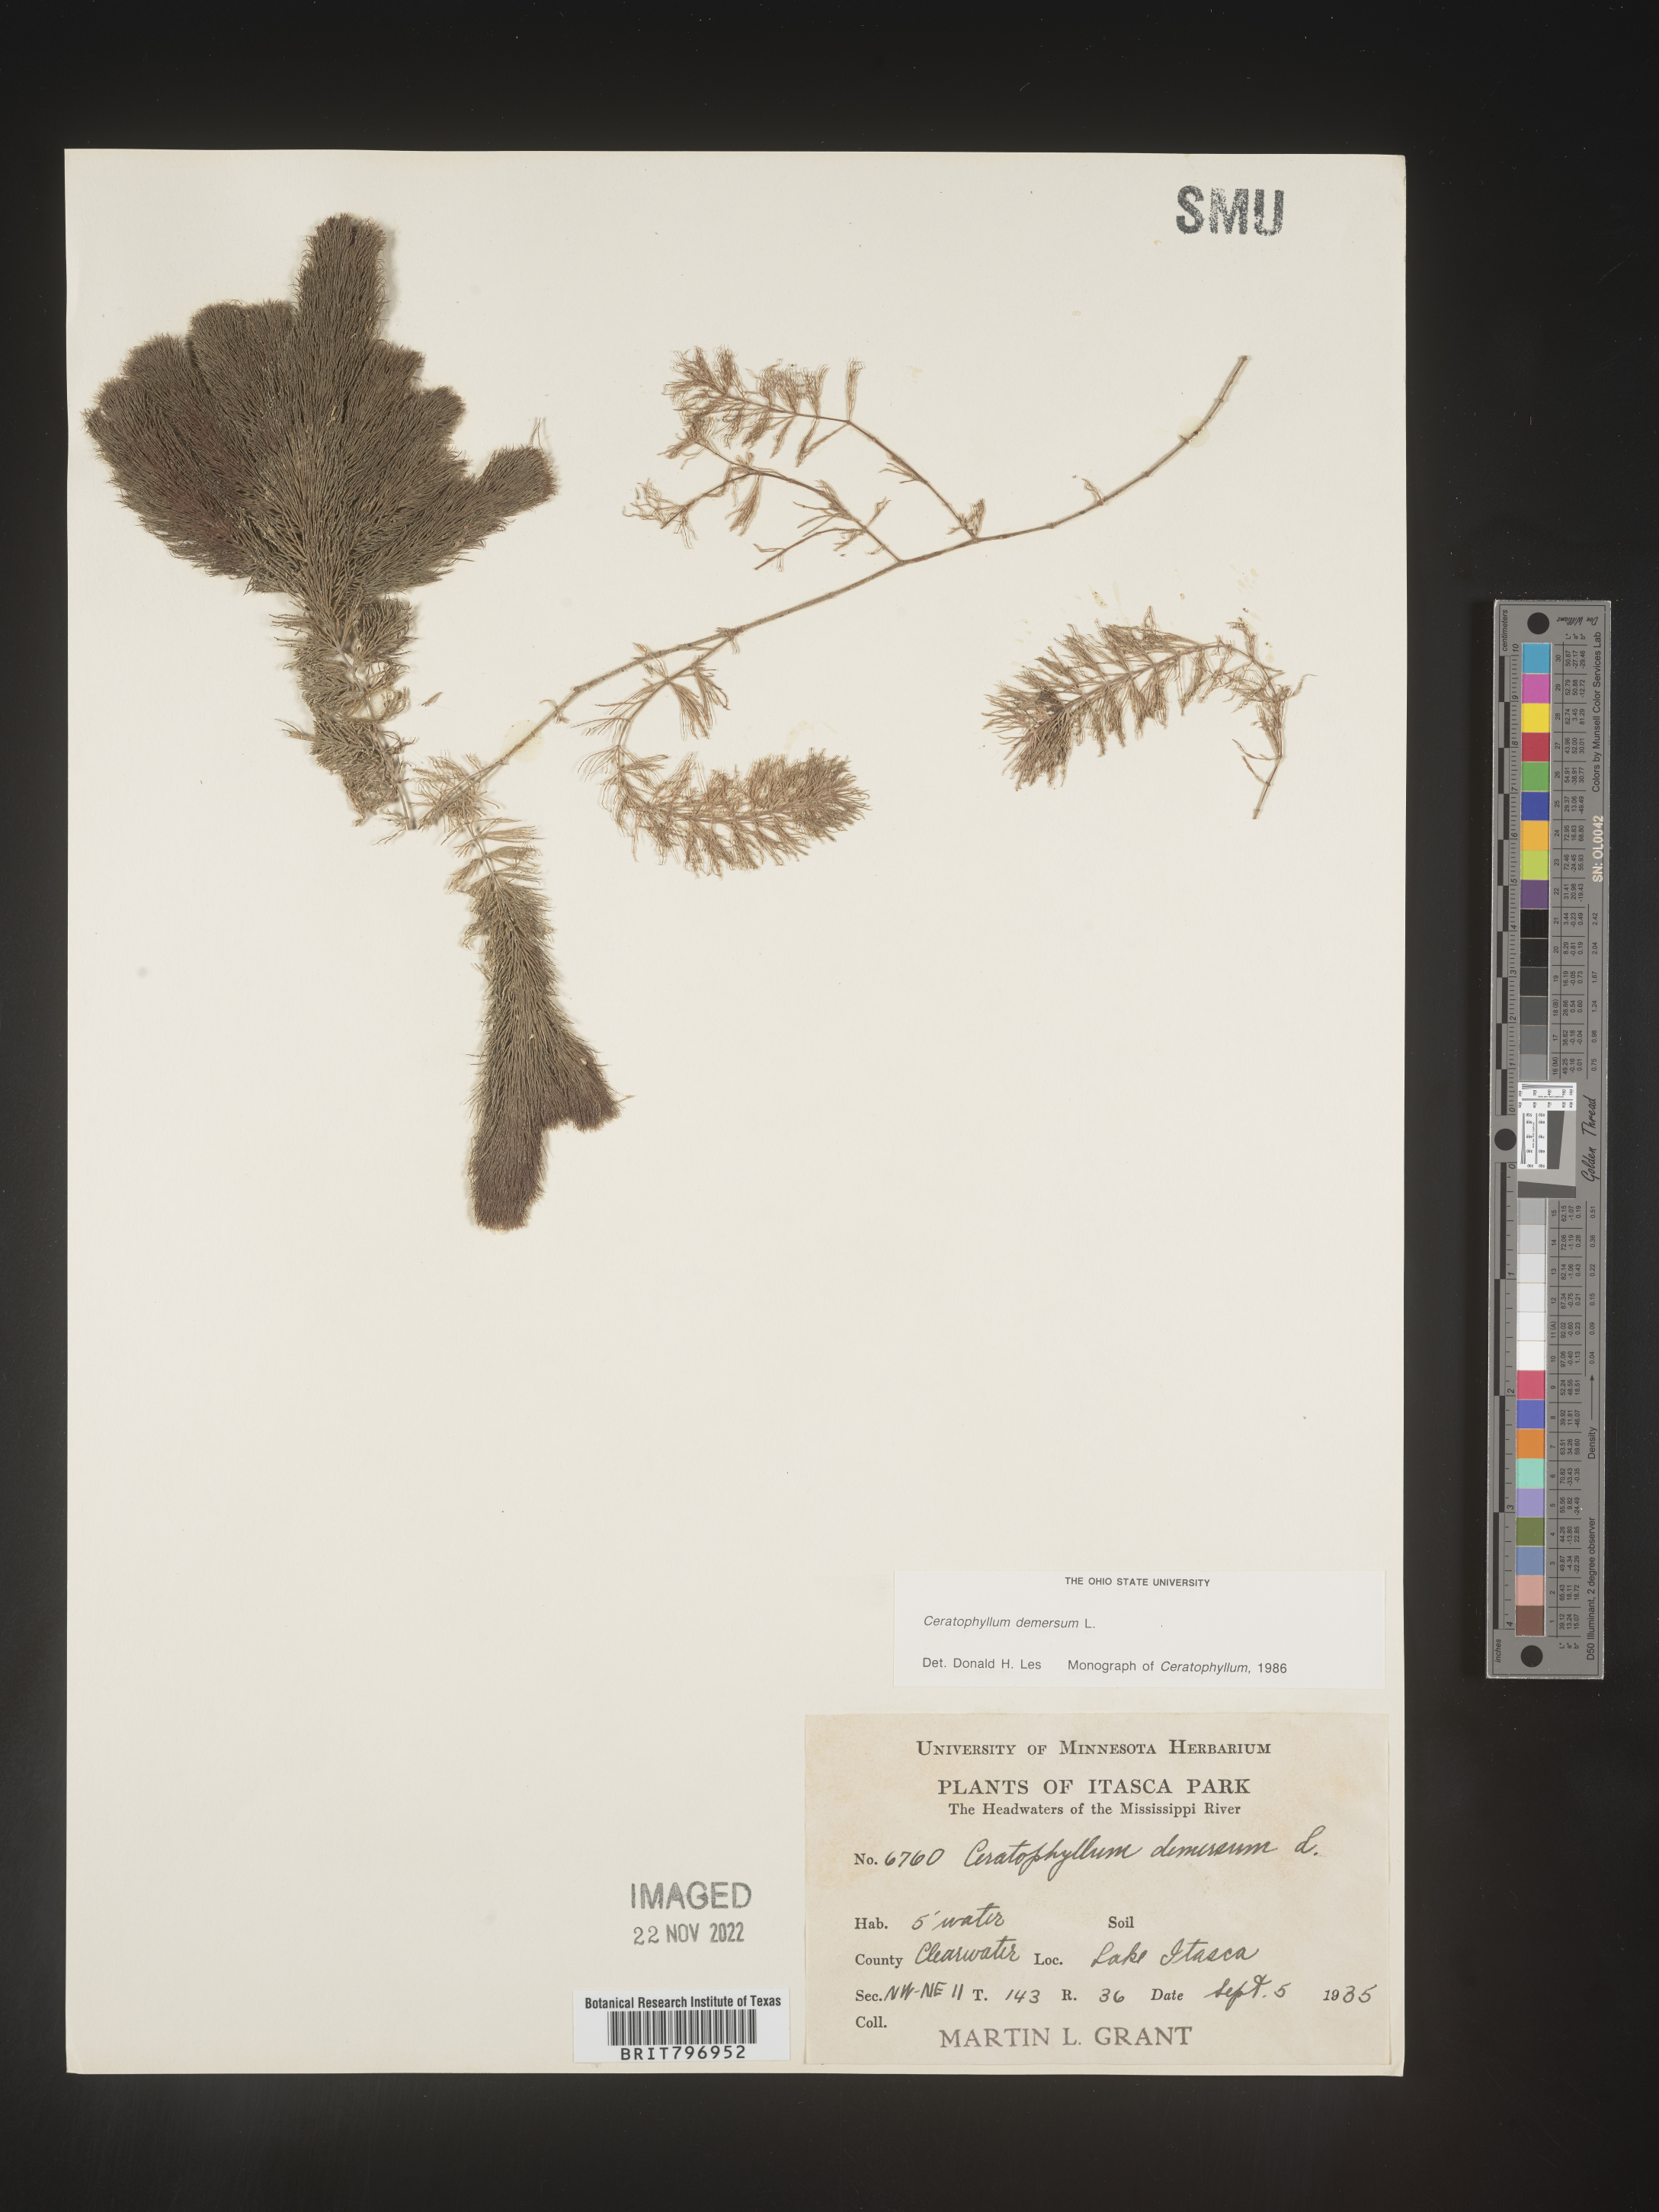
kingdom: Plantae
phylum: Tracheophyta
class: Magnoliopsida
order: Ceratophyllales
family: Ceratophyllaceae
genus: Ceratophyllum
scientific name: Ceratophyllum demersum
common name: Rigid hornwort
